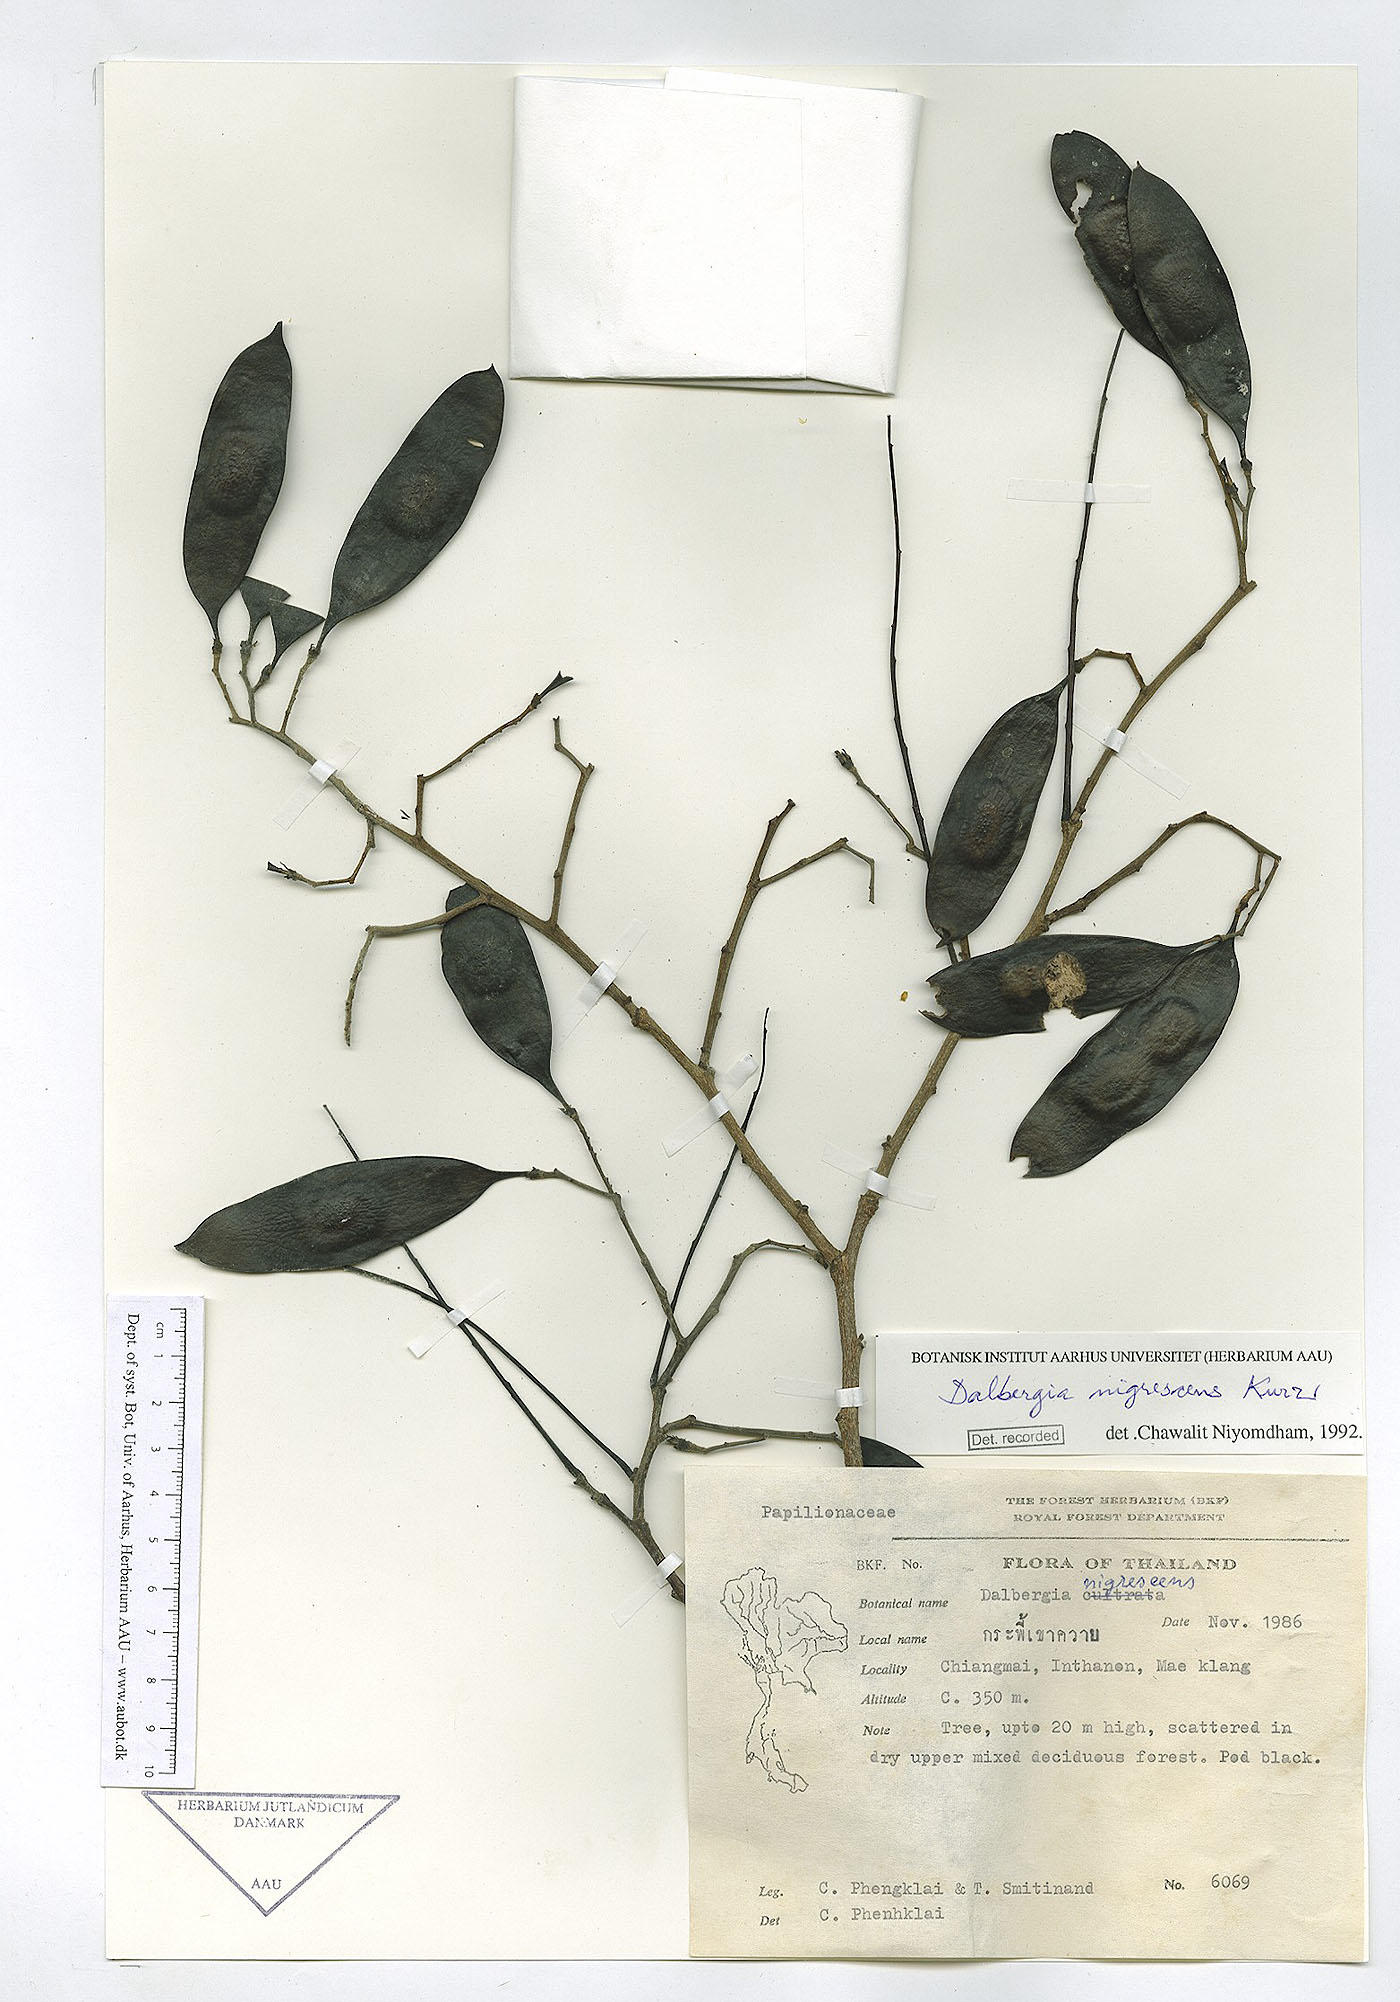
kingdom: Plantae
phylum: Tracheophyta
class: Magnoliopsida
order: Fabales
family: Fabaceae
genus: Dalbergia
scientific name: Dalbergia nigrescens
